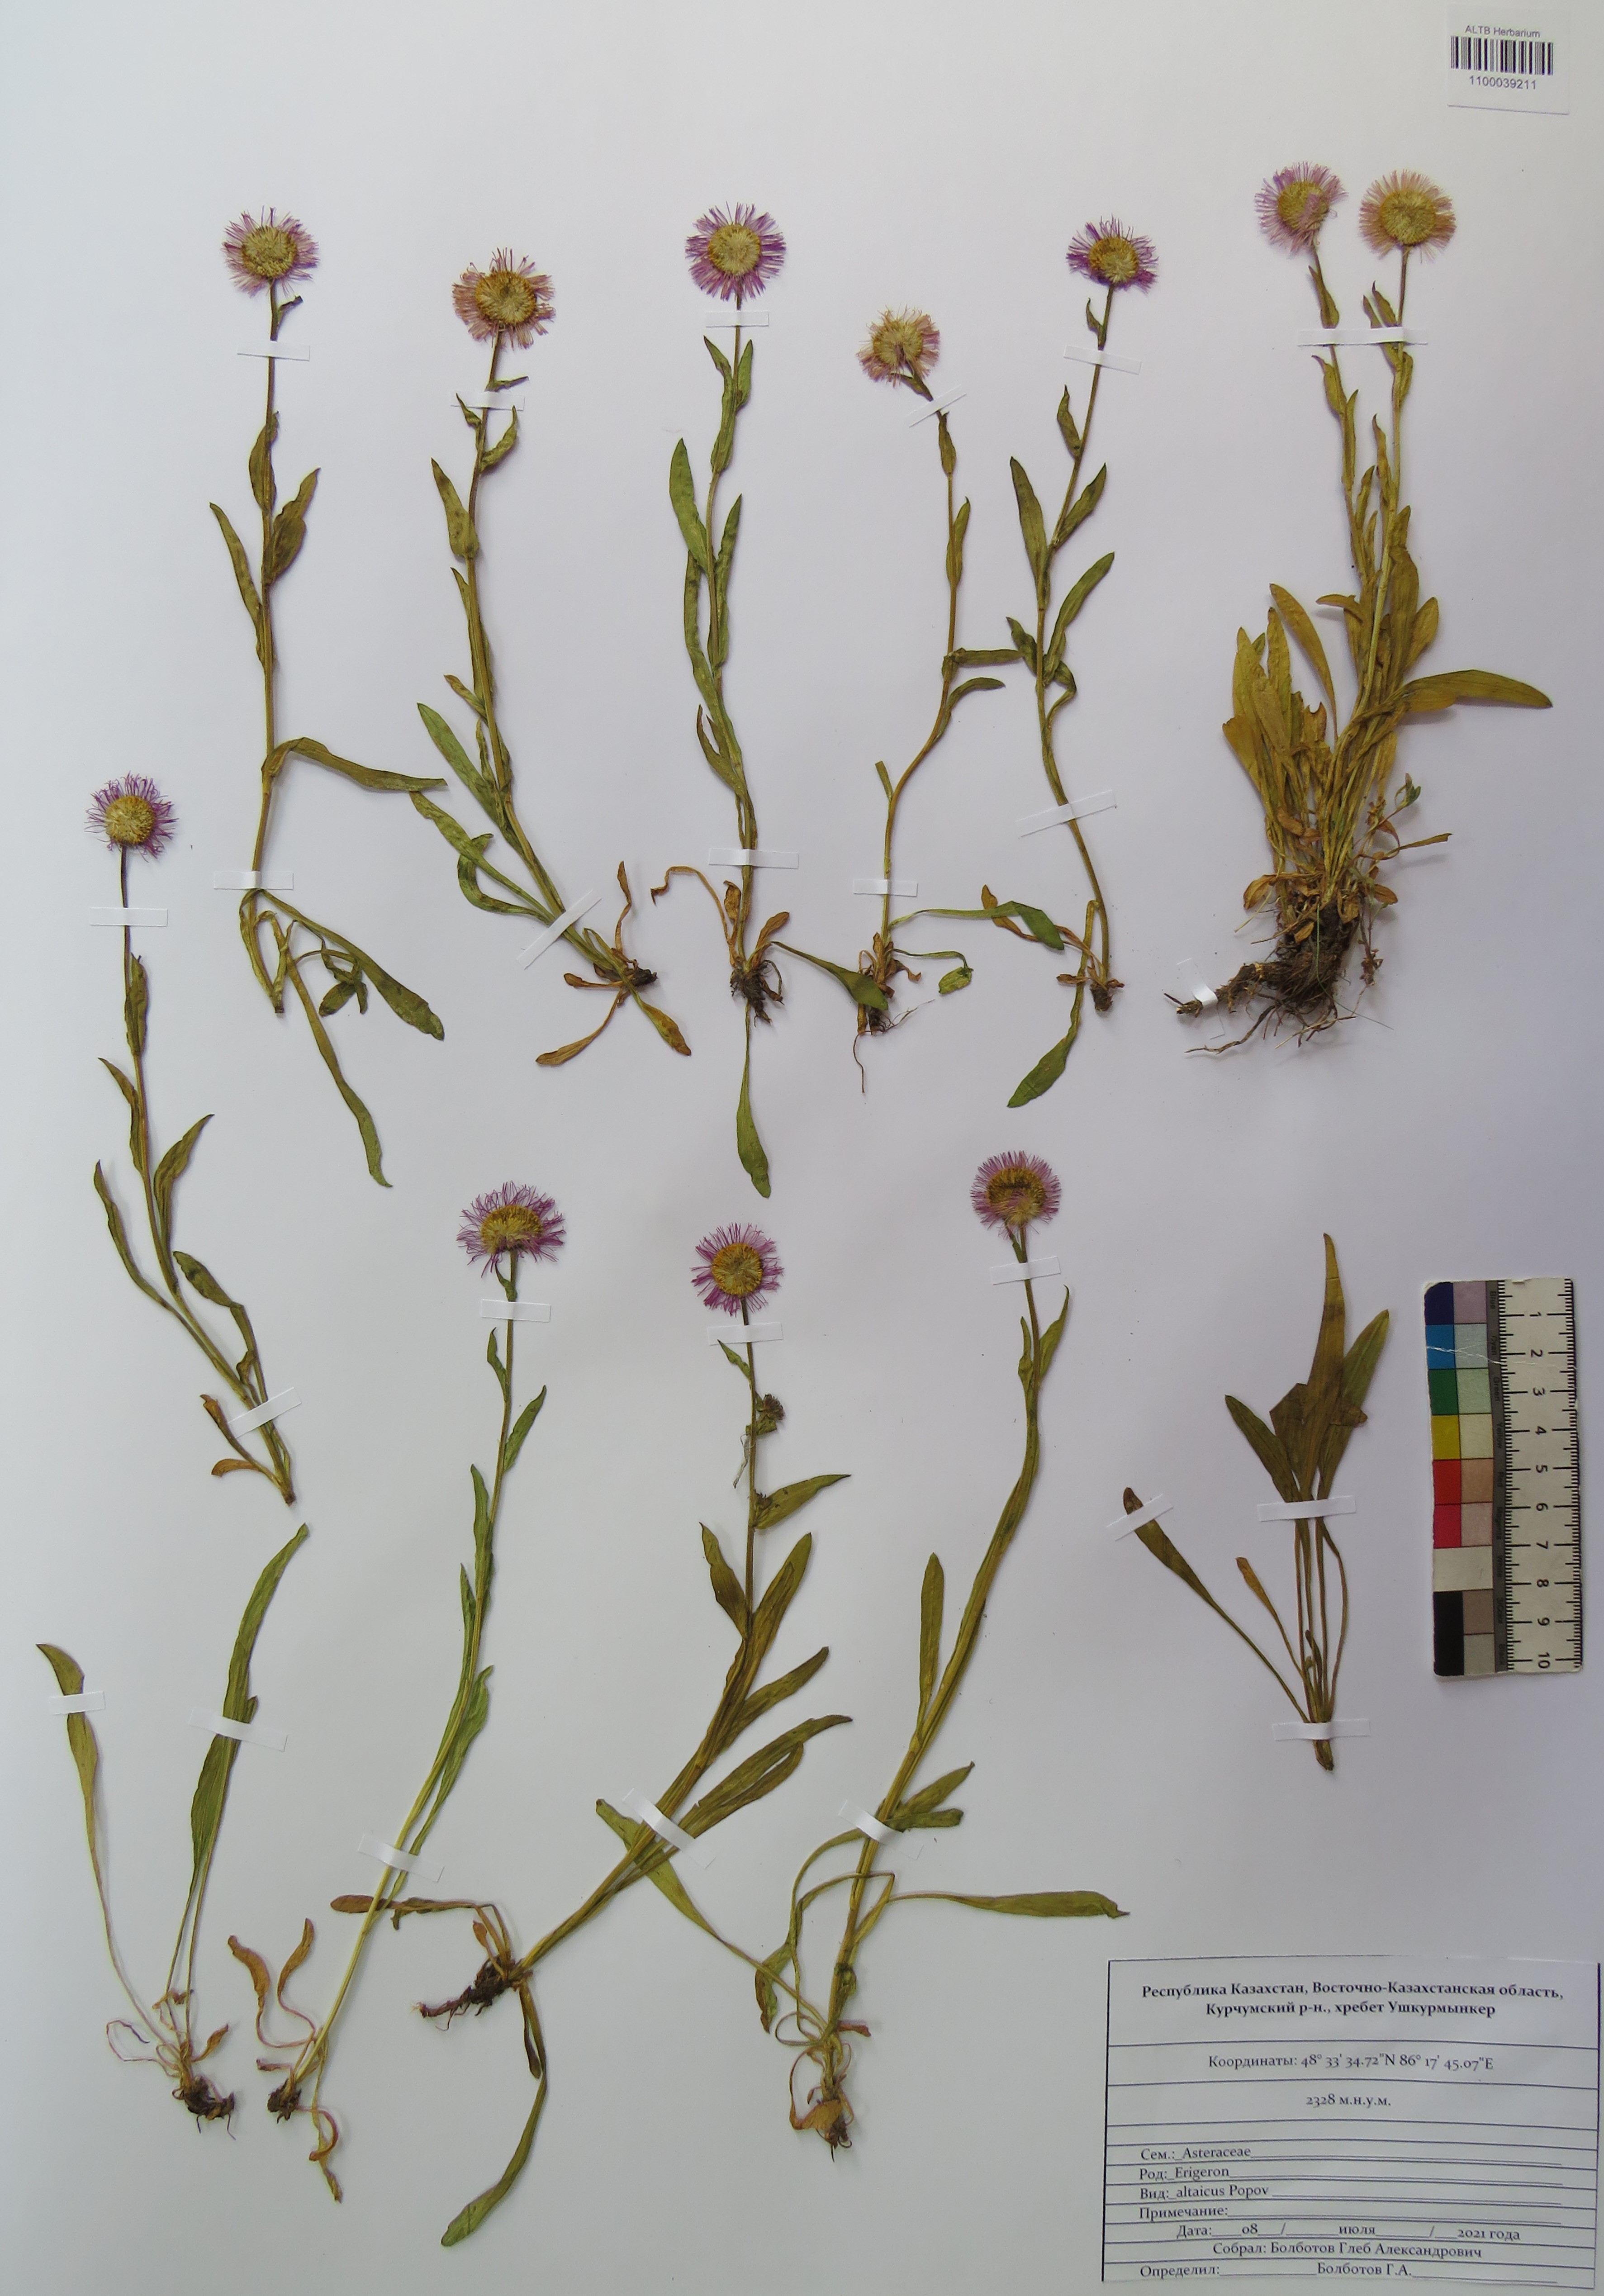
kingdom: Plantae
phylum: Tracheophyta
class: Magnoliopsida
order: Asterales
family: Asteraceae
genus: Erigeron
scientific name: Erigeron altaicus
